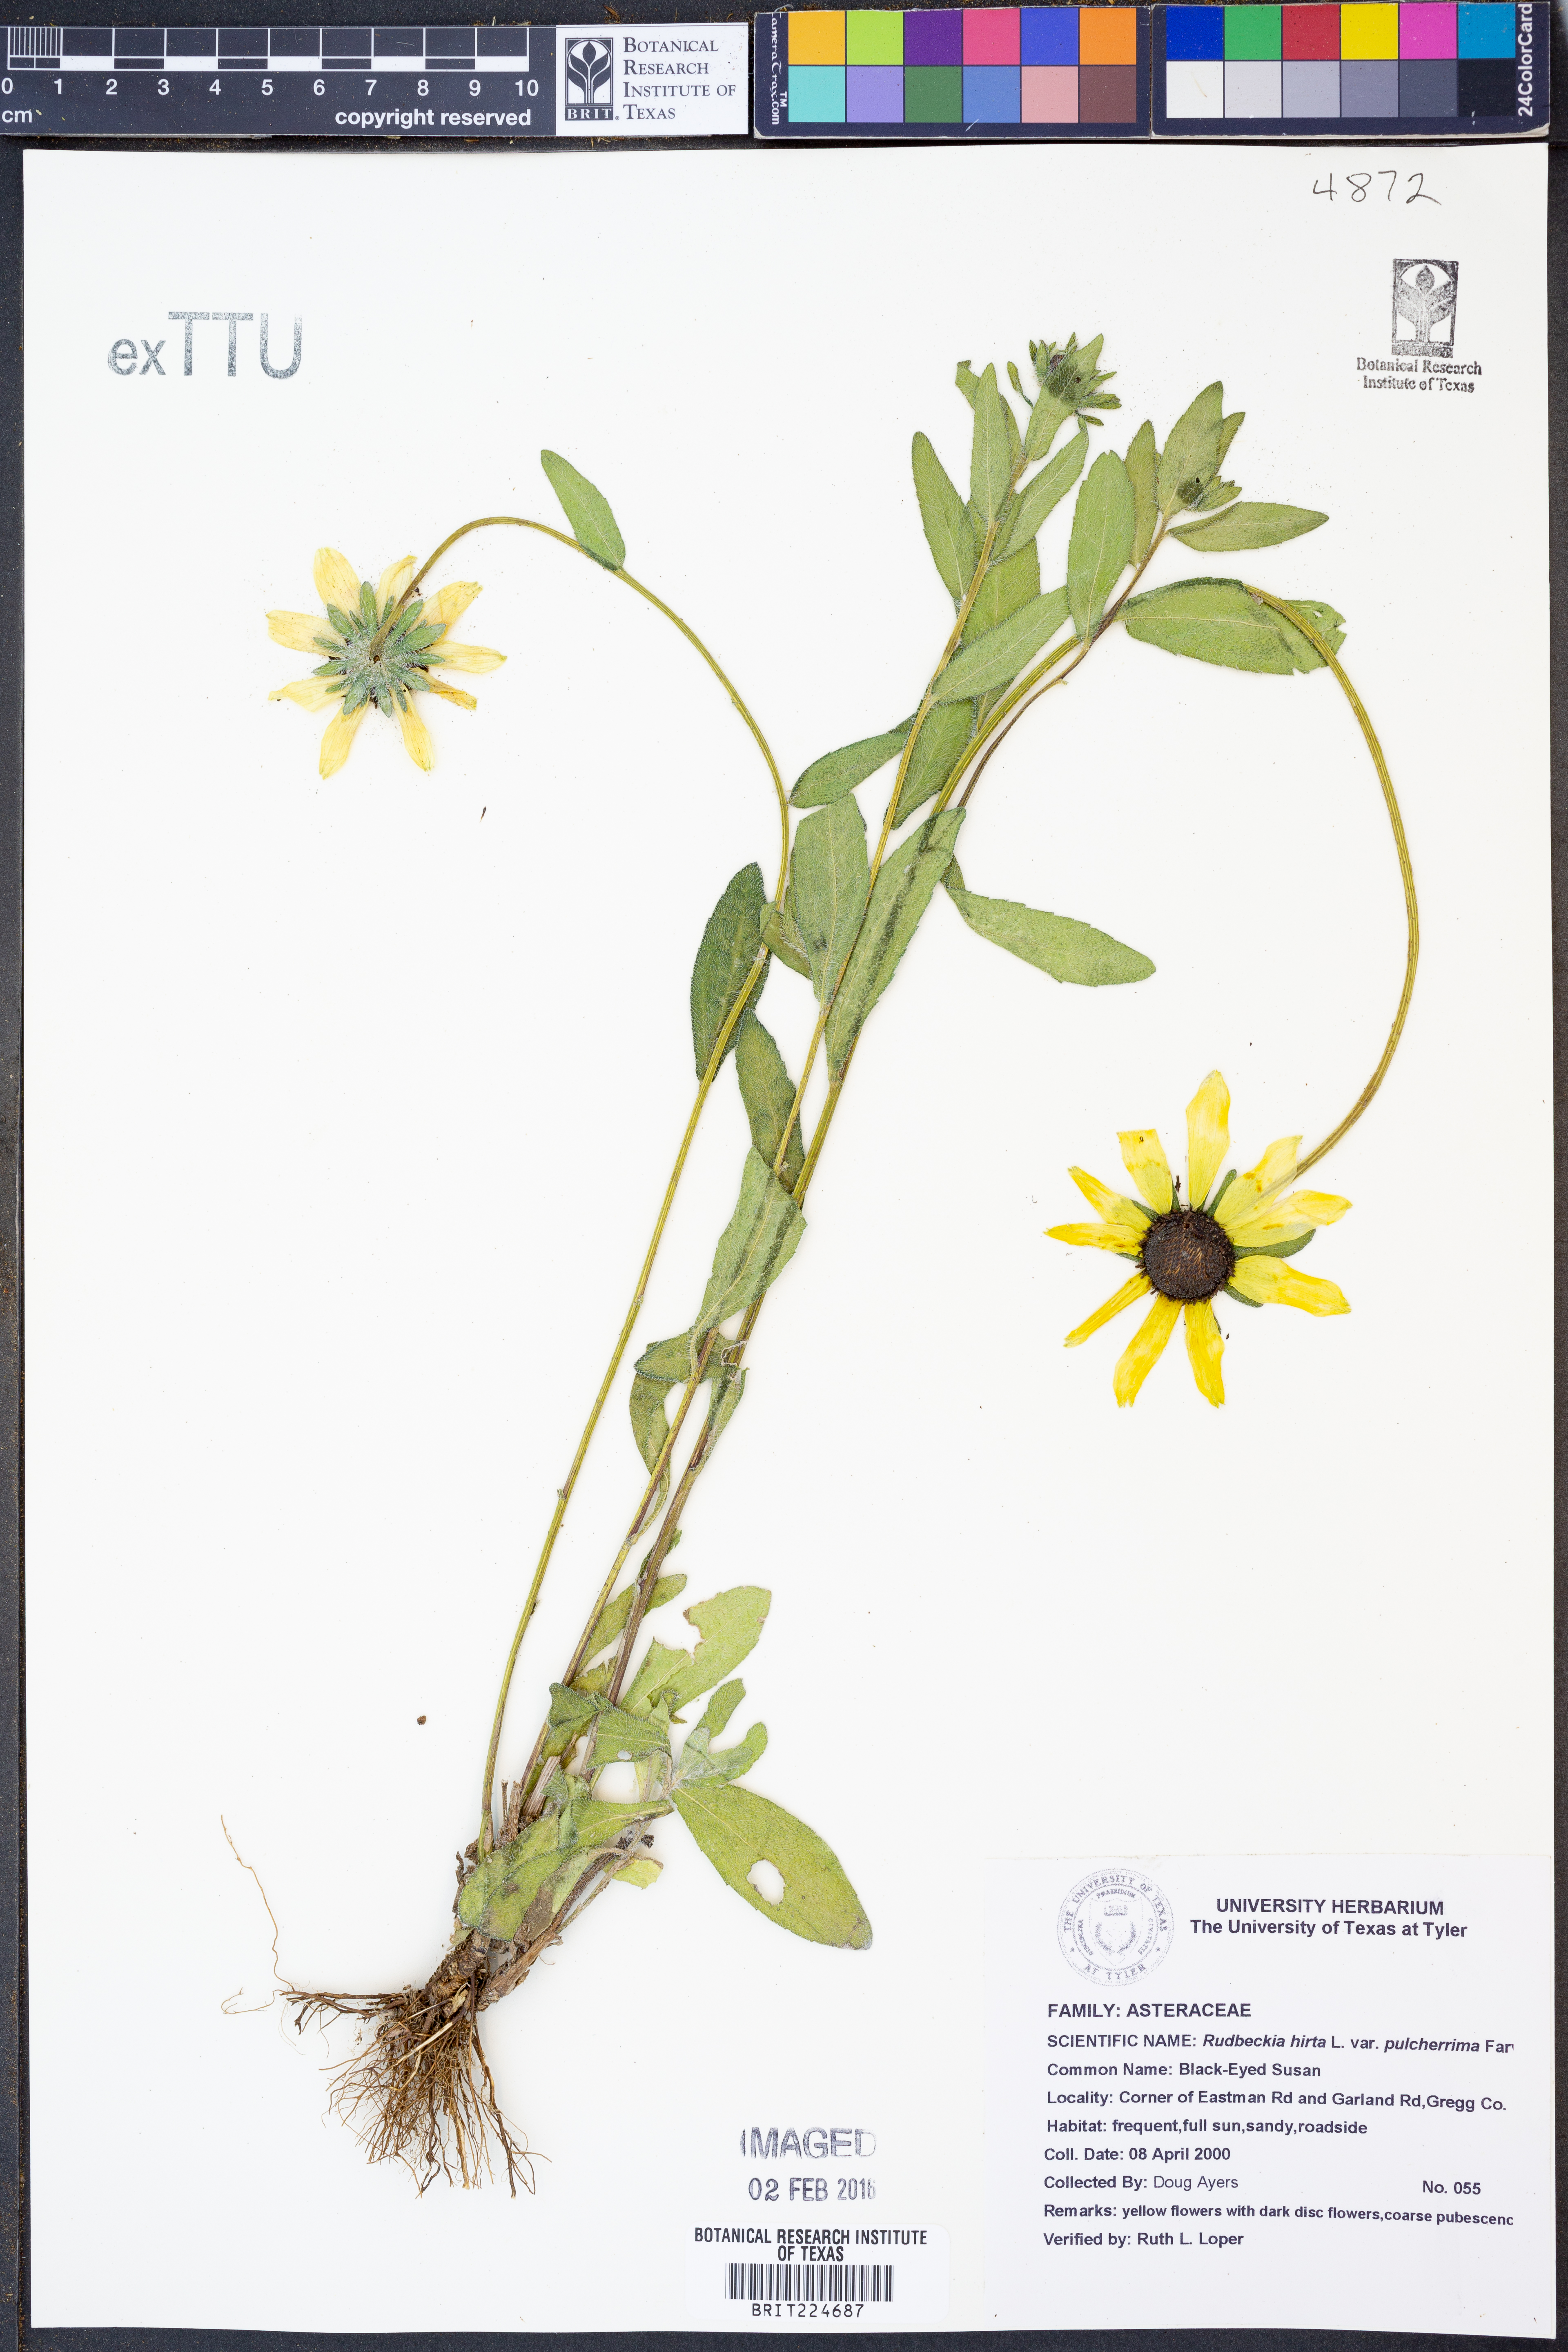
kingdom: Plantae
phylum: Tracheophyta
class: Magnoliopsida
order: Asterales
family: Asteraceae
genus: Rudbeckia
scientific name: Rudbeckia hirta
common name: Black-eyed-susan
